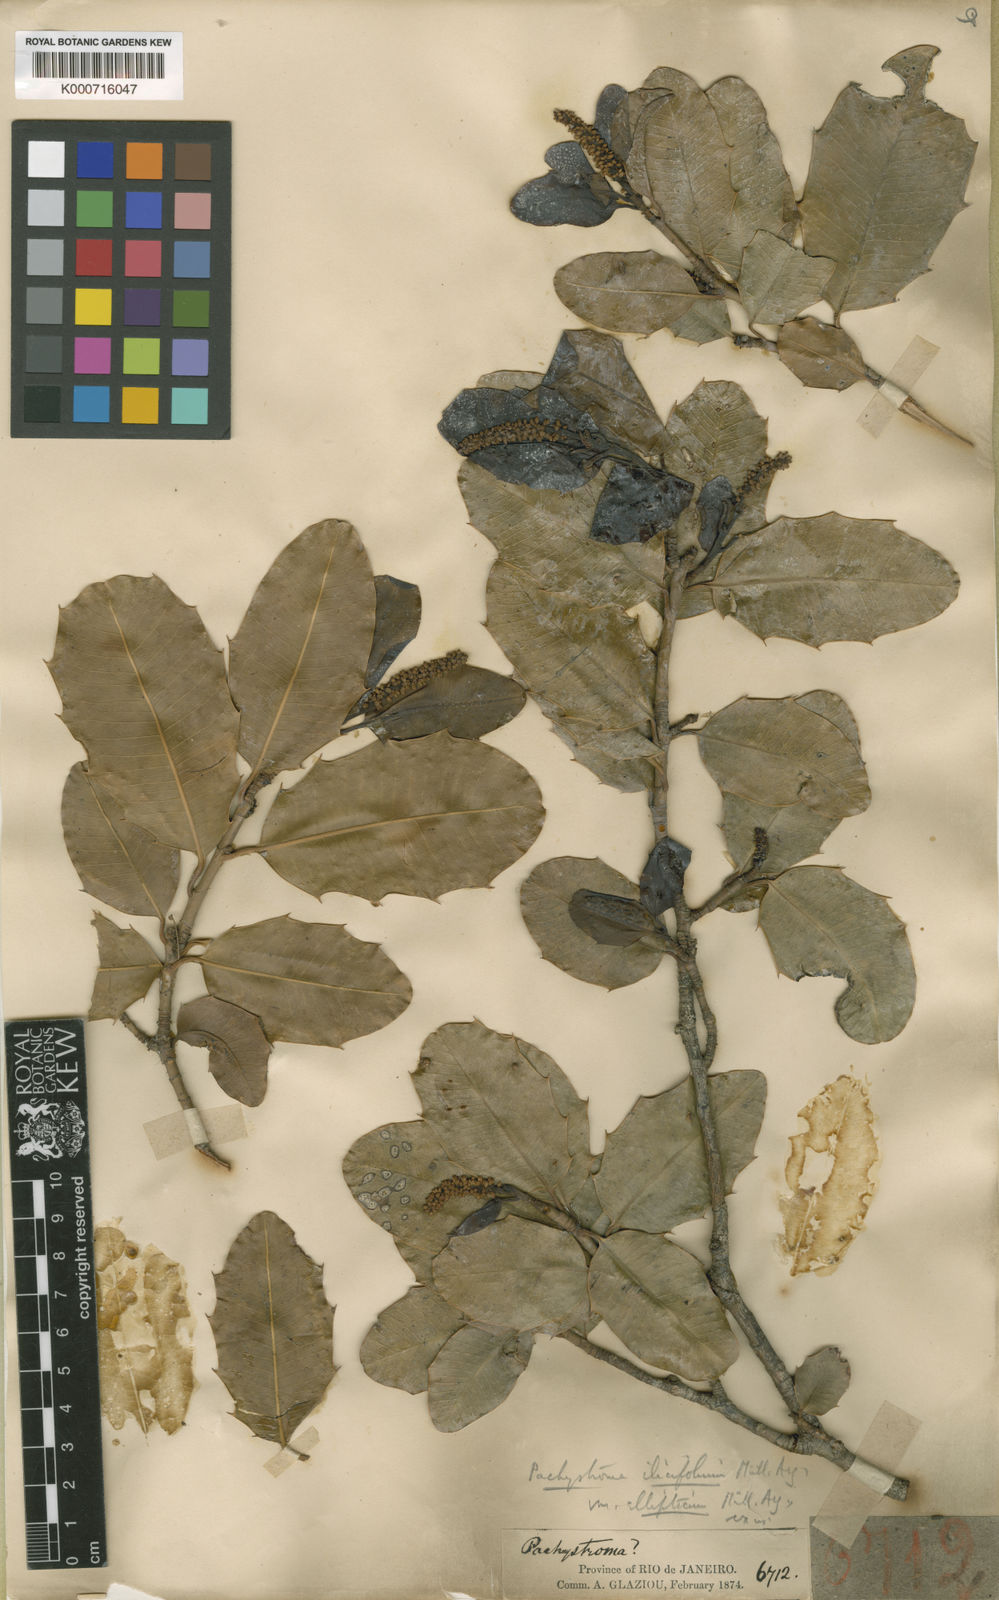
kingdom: Plantae
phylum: Tracheophyta
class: Magnoliopsida
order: Malpighiales
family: Euphorbiaceae
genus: Pachystroma
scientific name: Pachystroma longifolium
